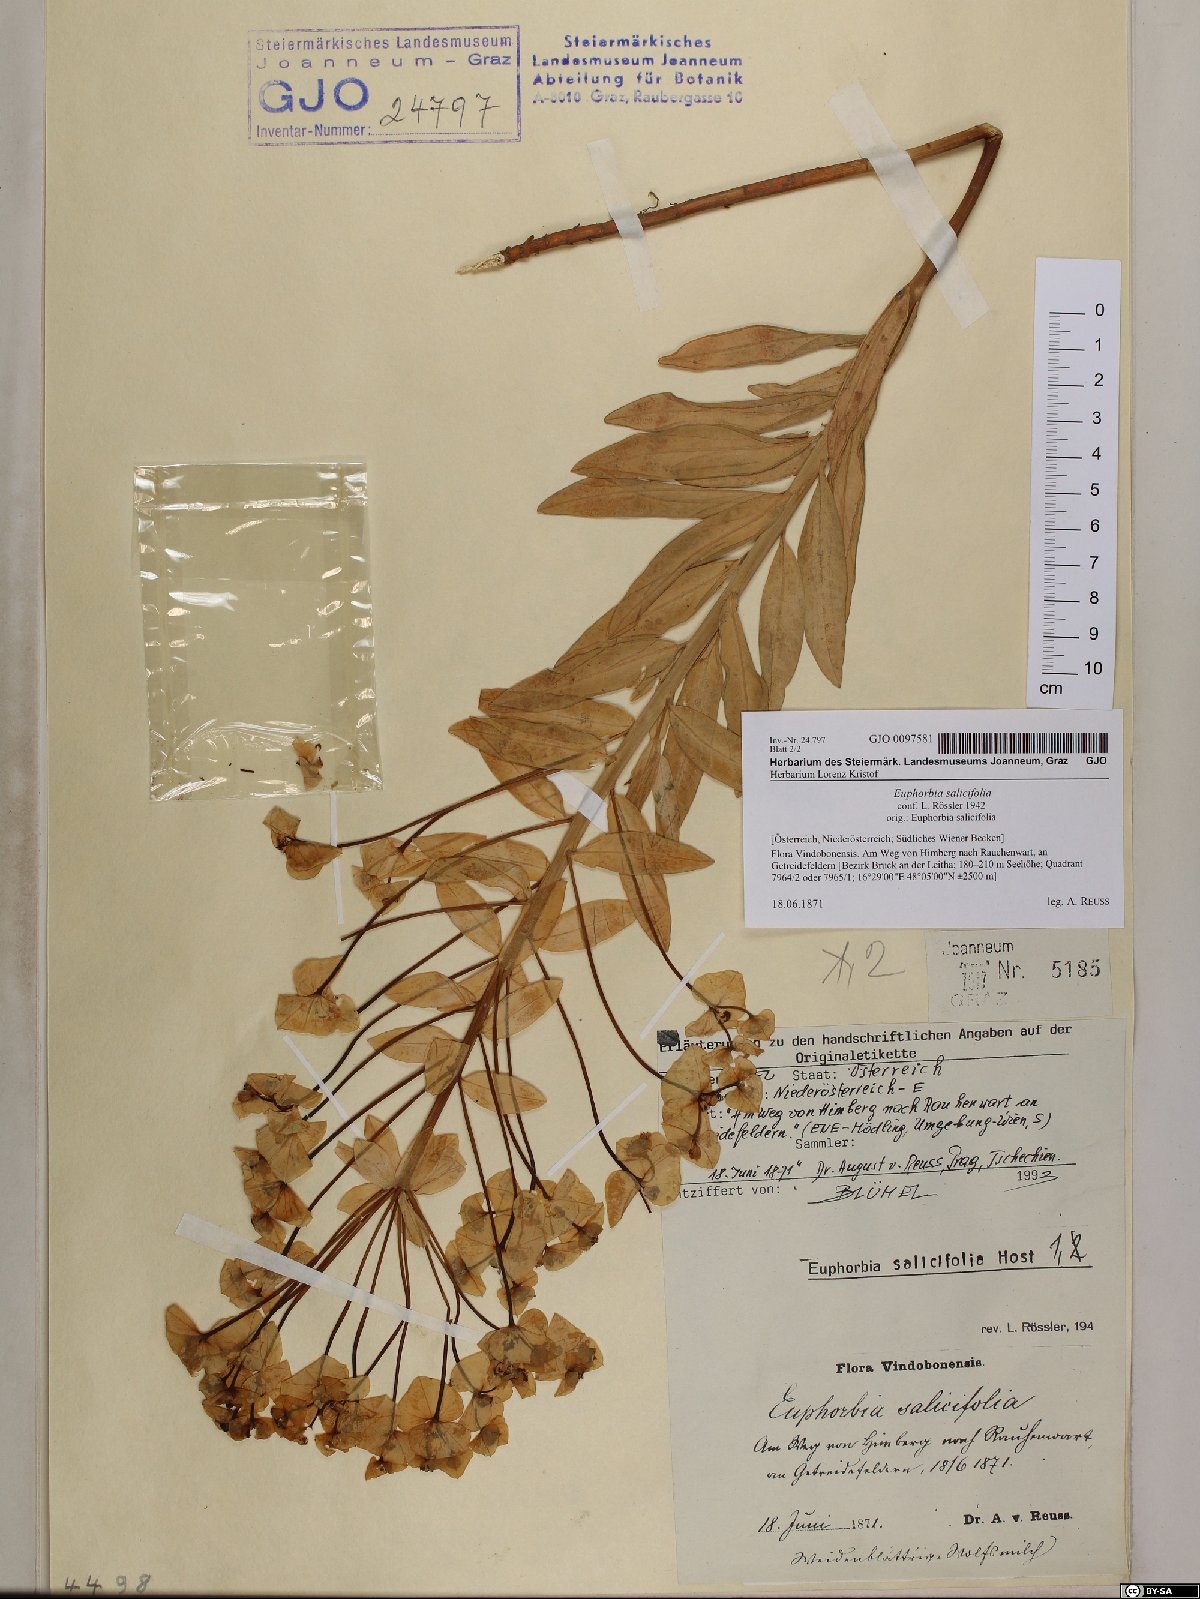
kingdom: Plantae
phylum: Tracheophyta
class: Magnoliopsida
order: Malpighiales
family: Euphorbiaceae
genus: Euphorbia
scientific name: Euphorbia salicifolia
